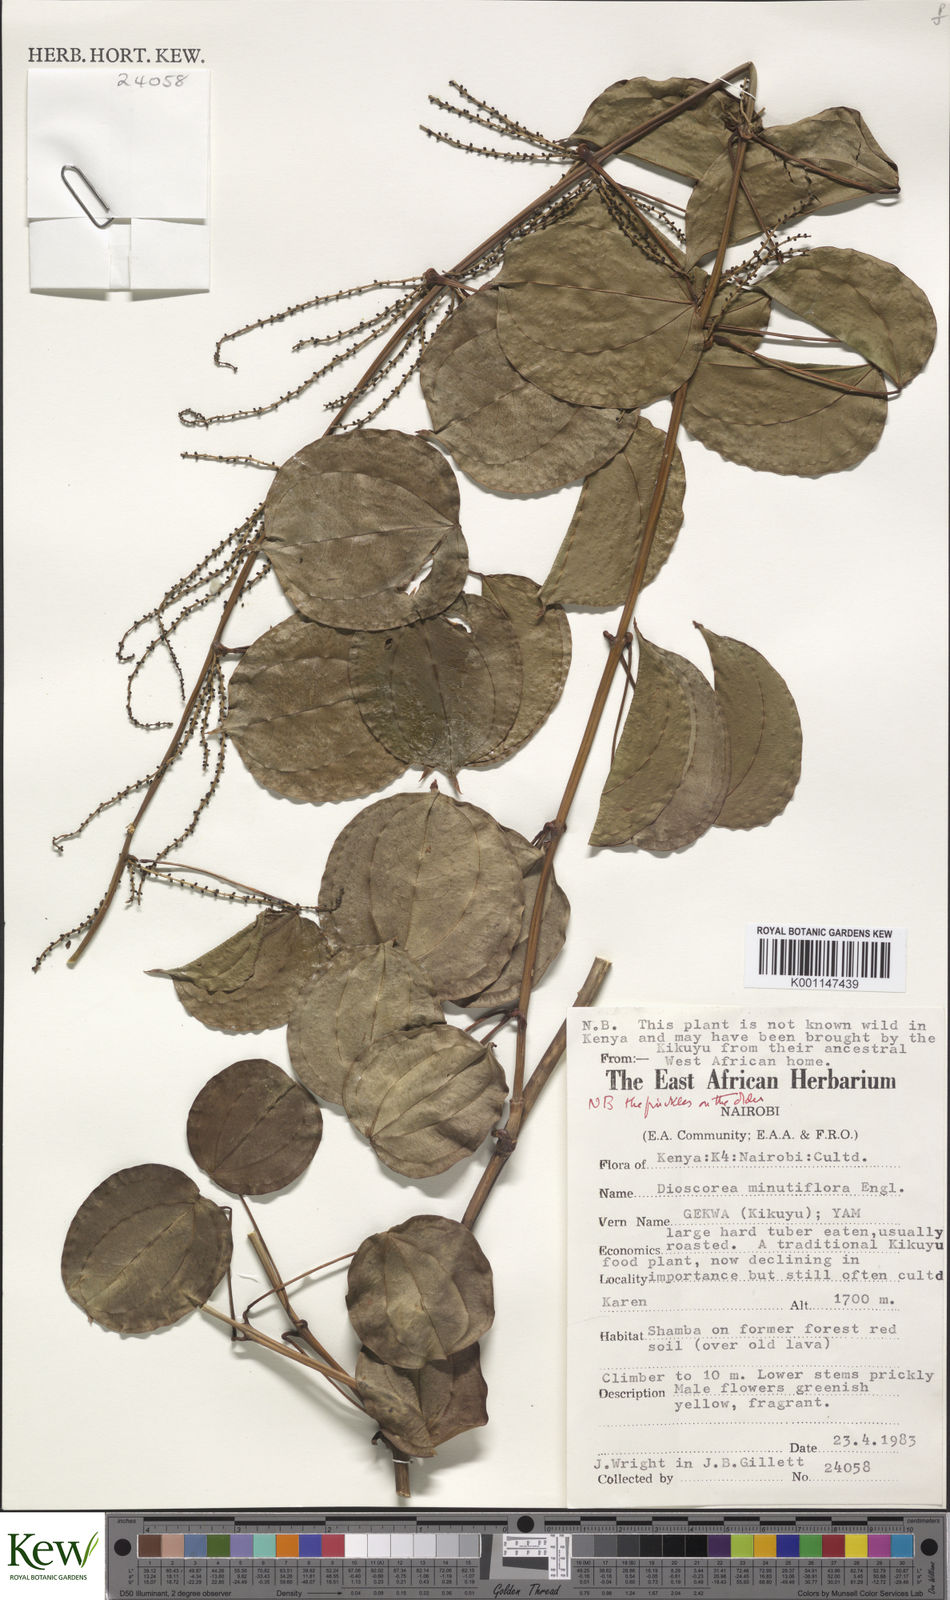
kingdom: Plantae
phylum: Tracheophyta
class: Liliopsida
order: Dioscoreales
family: Dioscoreaceae
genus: Dioscorea
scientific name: Dioscorea minutiflora
